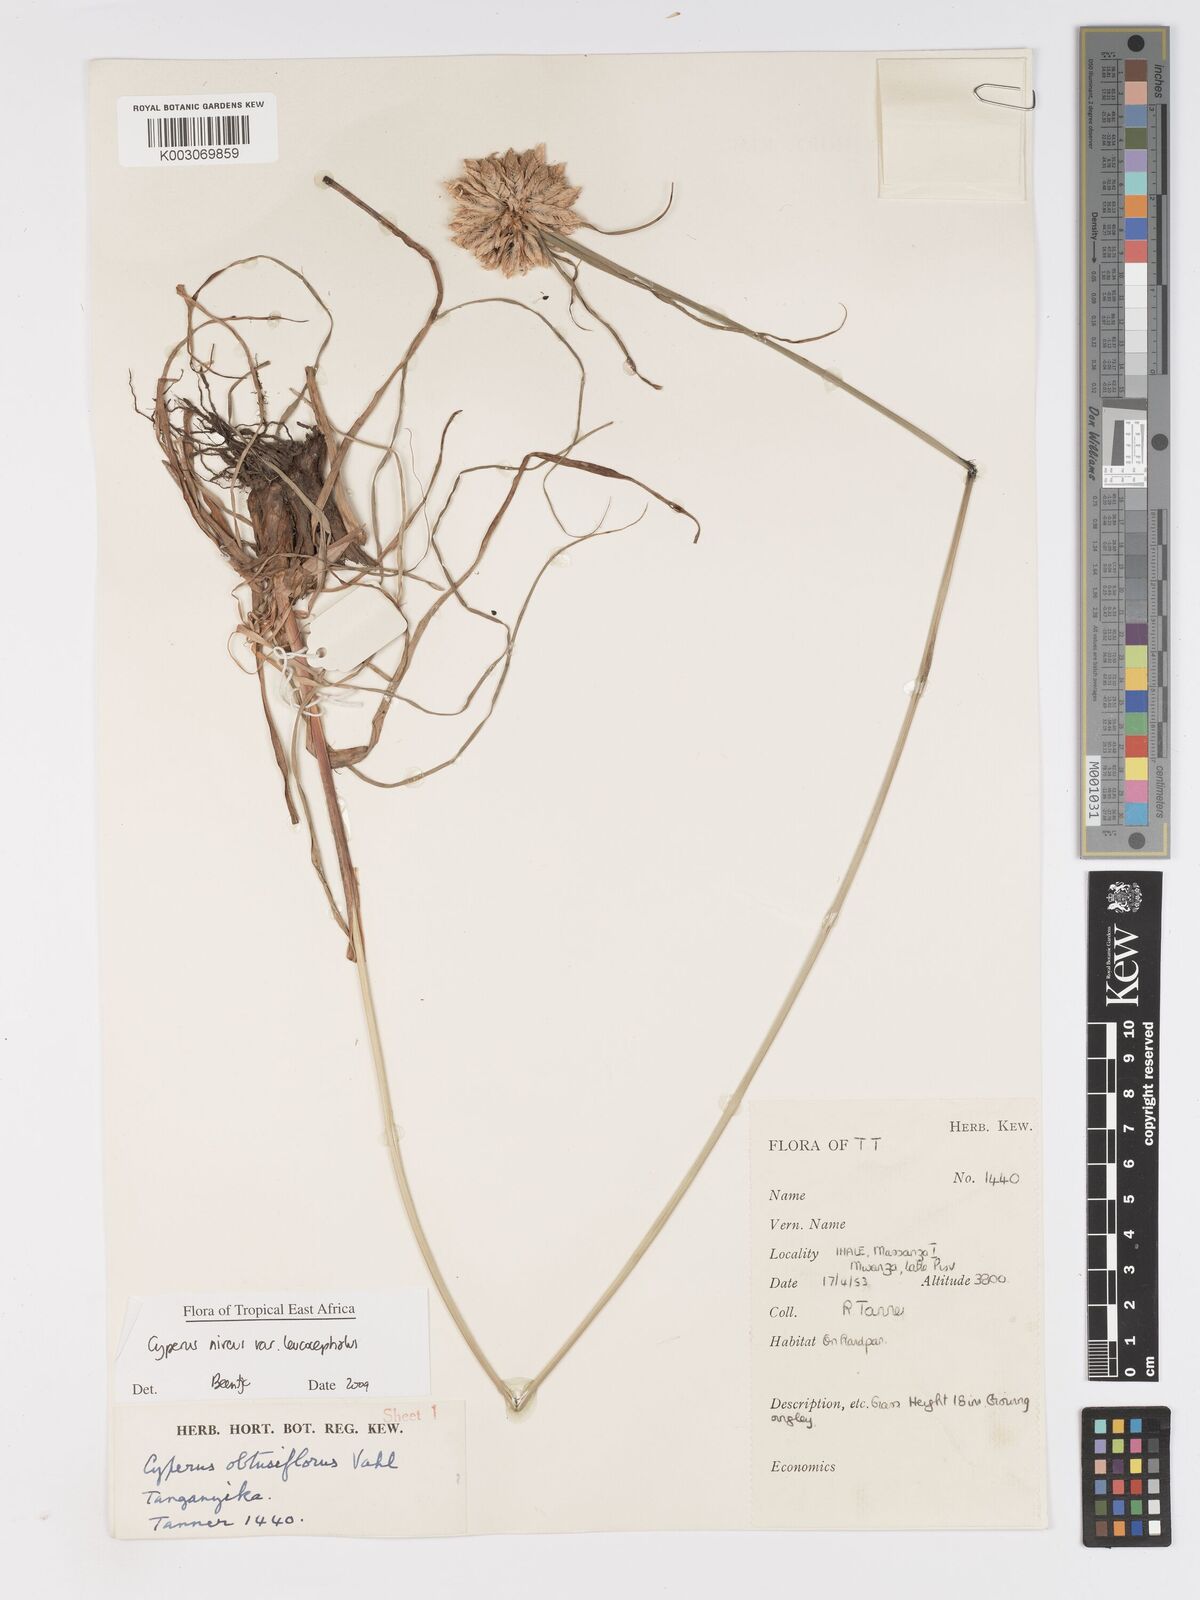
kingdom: Plantae
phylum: Tracheophyta
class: Liliopsida
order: Poales
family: Cyperaceae
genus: Cyperus
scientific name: Cyperus niveus
